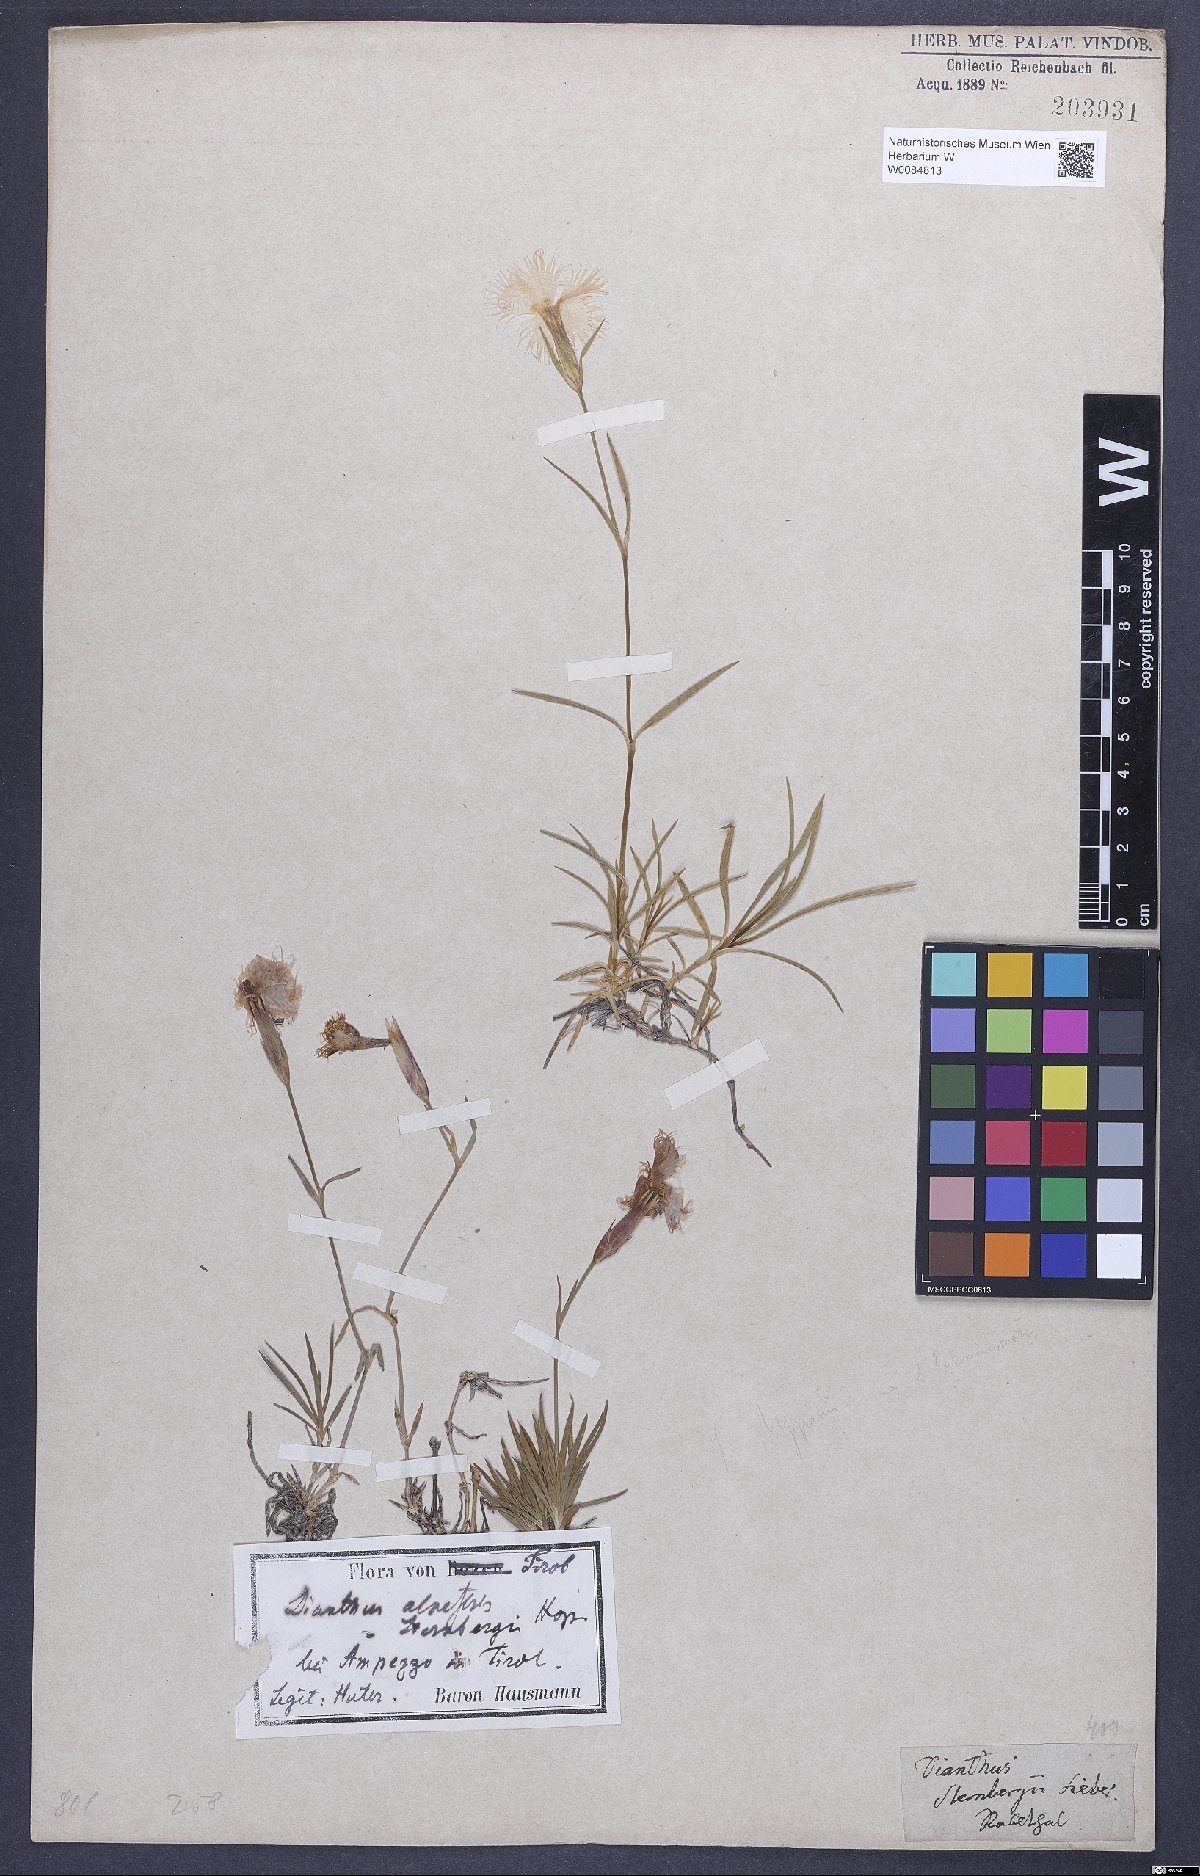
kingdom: Plantae
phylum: Tracheophyta
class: Magnoliopsida
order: Caryophyllales
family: Caryophyllaceae
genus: Dianthus
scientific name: Dianthus monspessulanus
